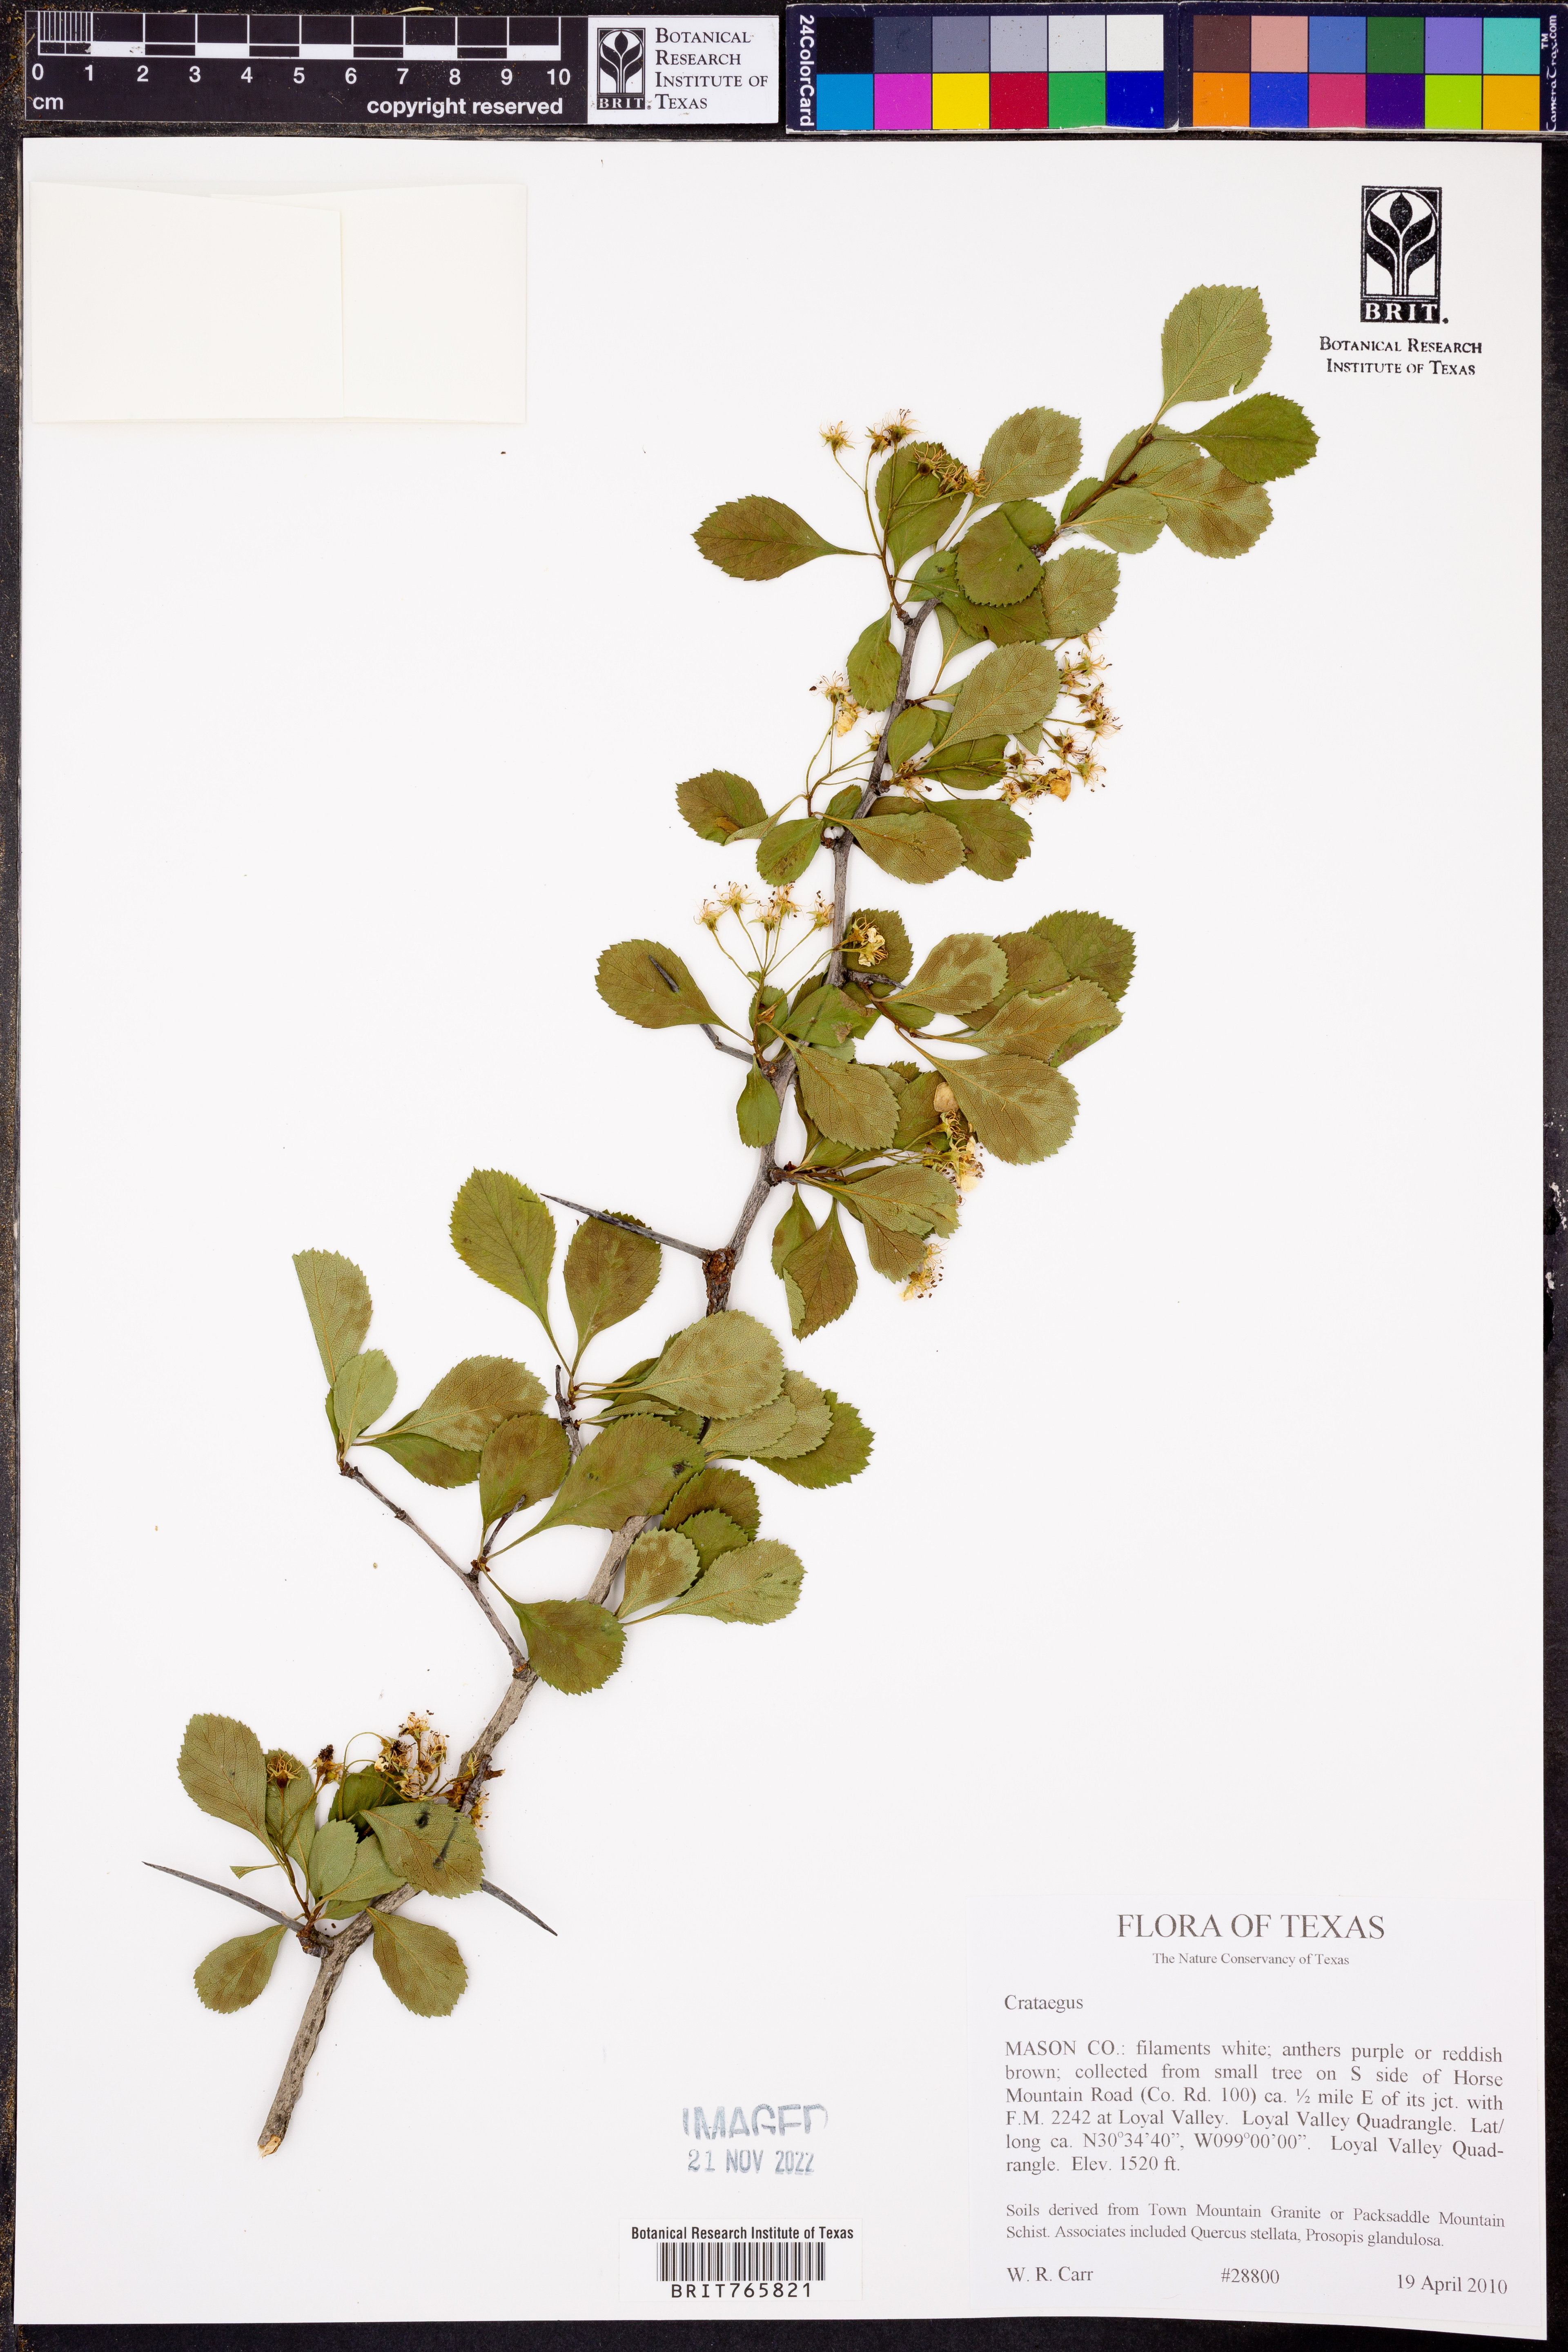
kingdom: Plantae
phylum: Tracheophyta
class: Magnoliopsida
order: Rosales
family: Rosaceae
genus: Crataegus
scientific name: Crataegus
